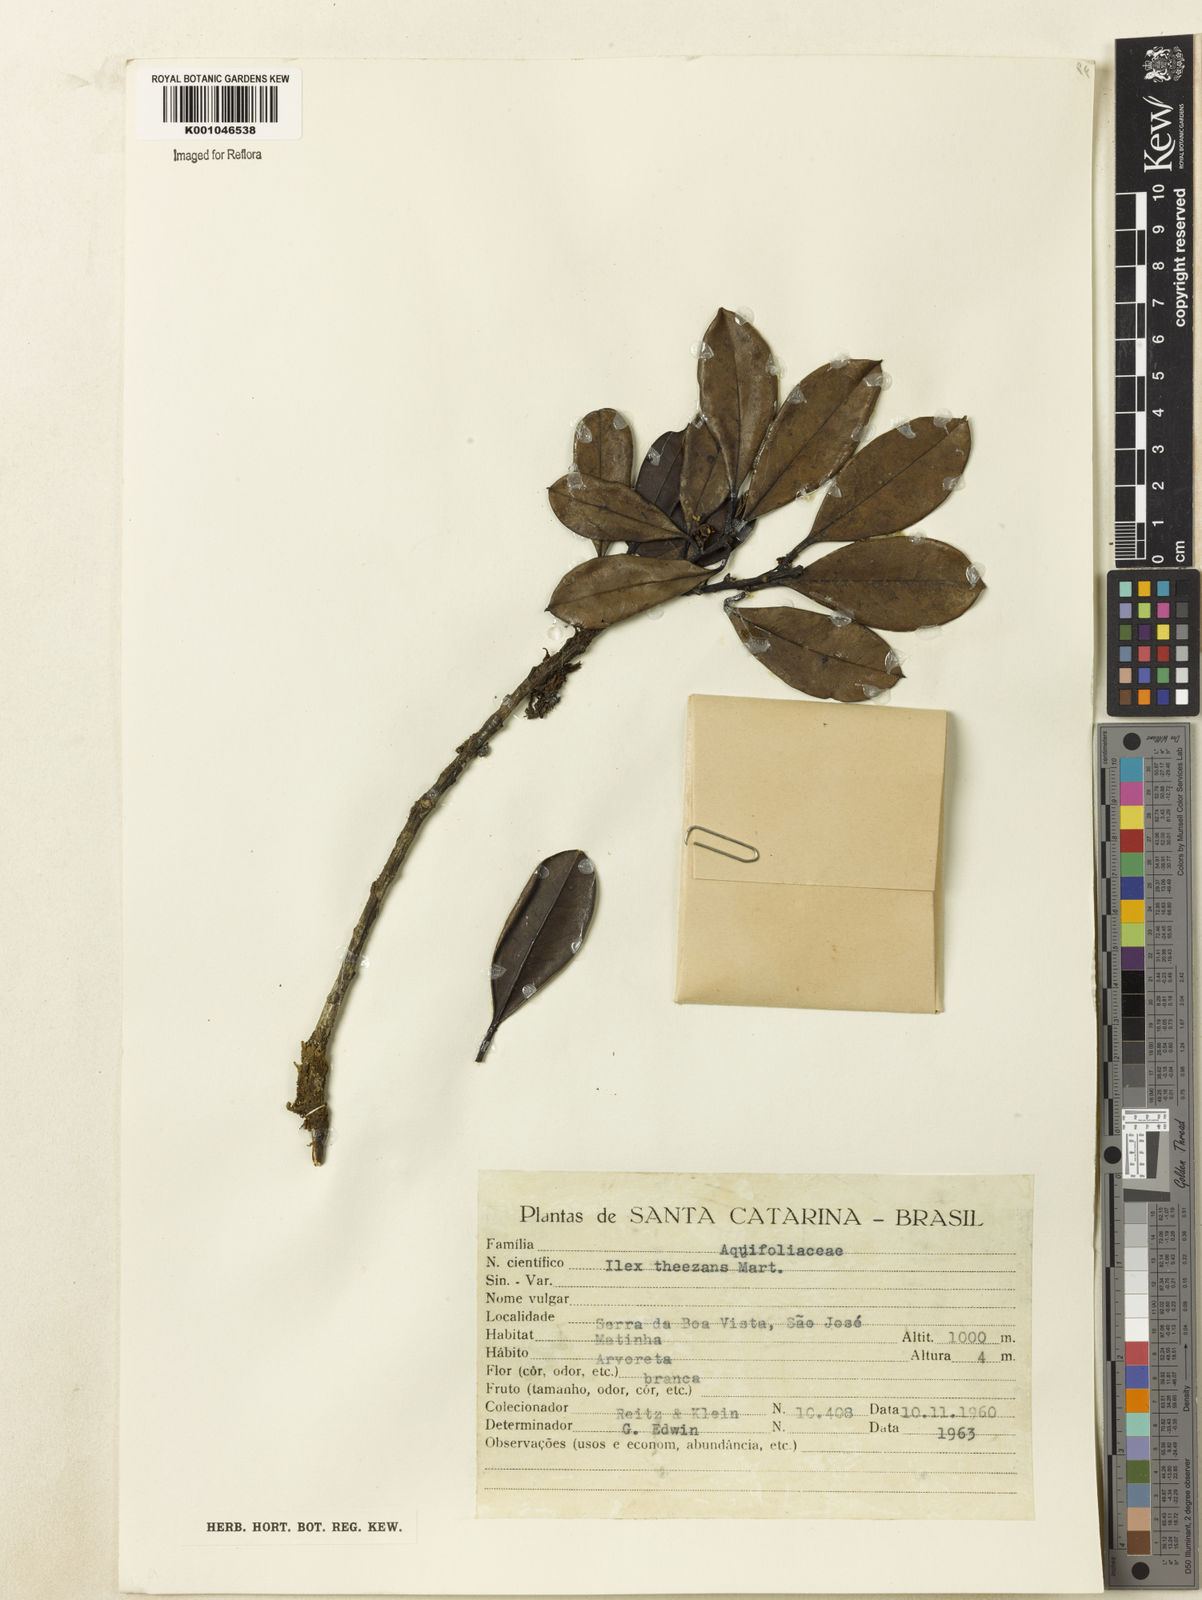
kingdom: Plantae
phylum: Tracheophyta
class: Magnoliopsida
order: Aquifoliales
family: Aquifoliaceae
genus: Ilex
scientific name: Ilex theezans
